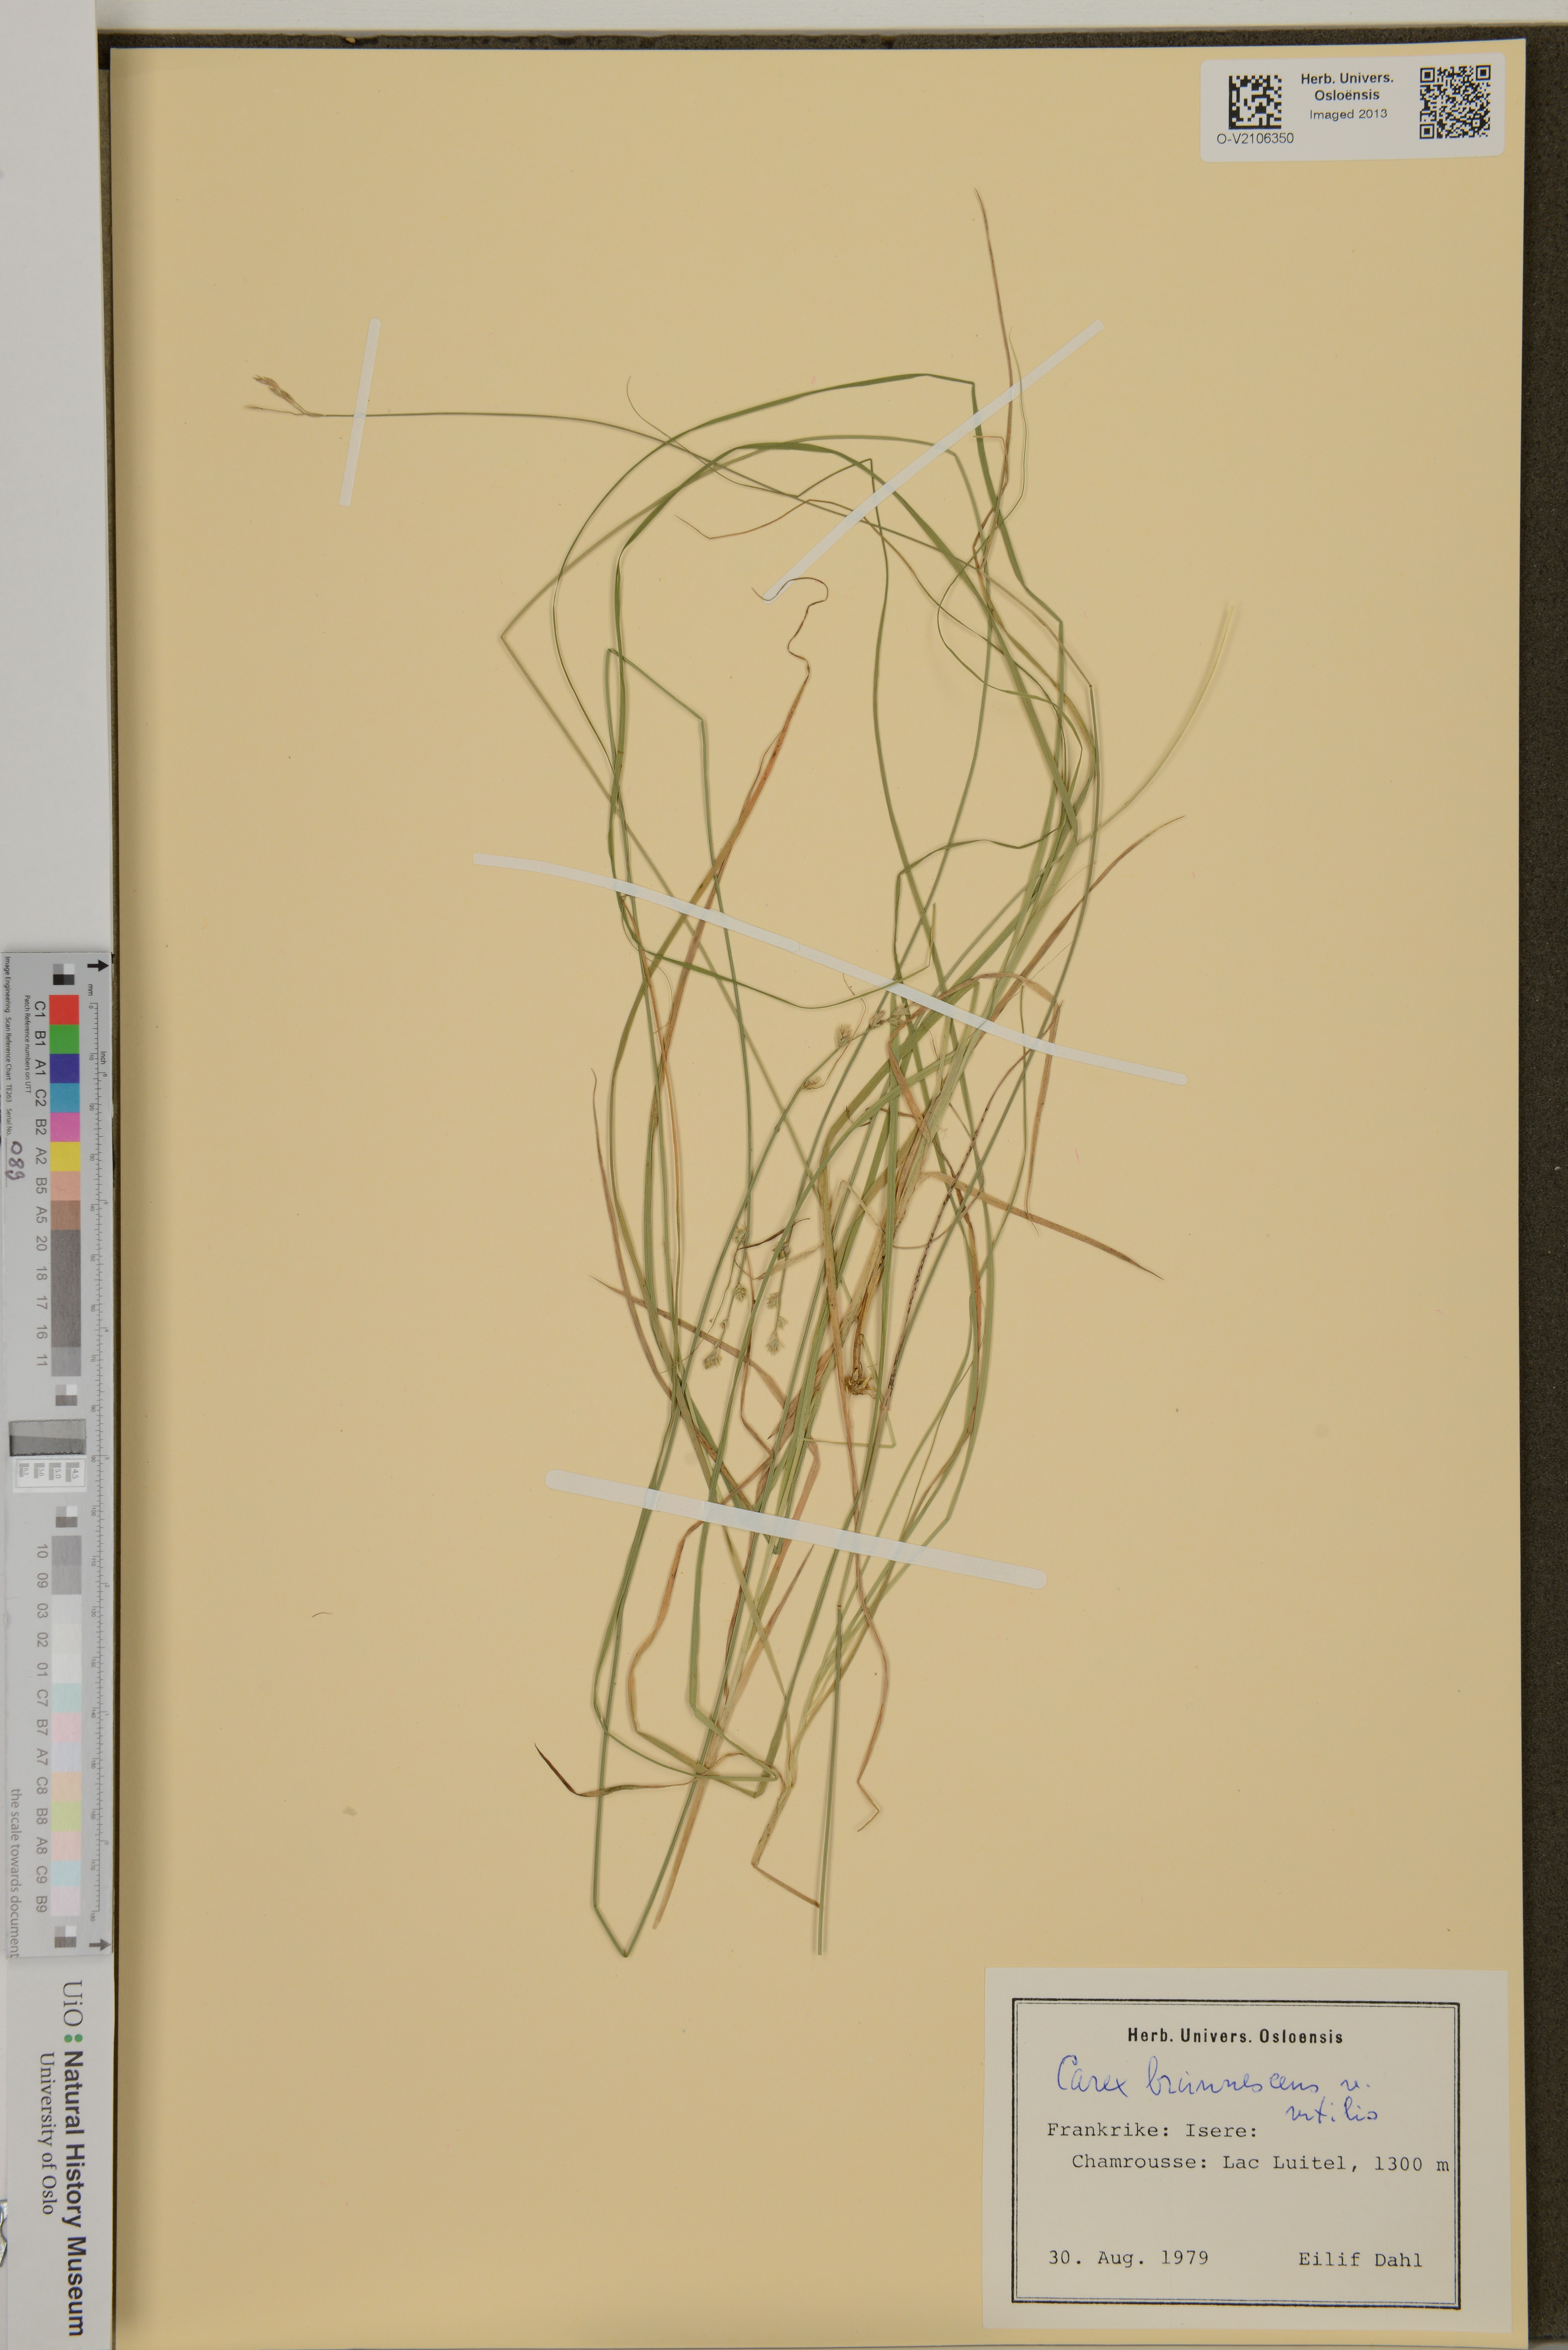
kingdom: Plantae
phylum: Tracheophyta
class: Liliopsida
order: Poales
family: Cyperaceae
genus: Carex
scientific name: Carex brunnescens
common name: Brown sedge
